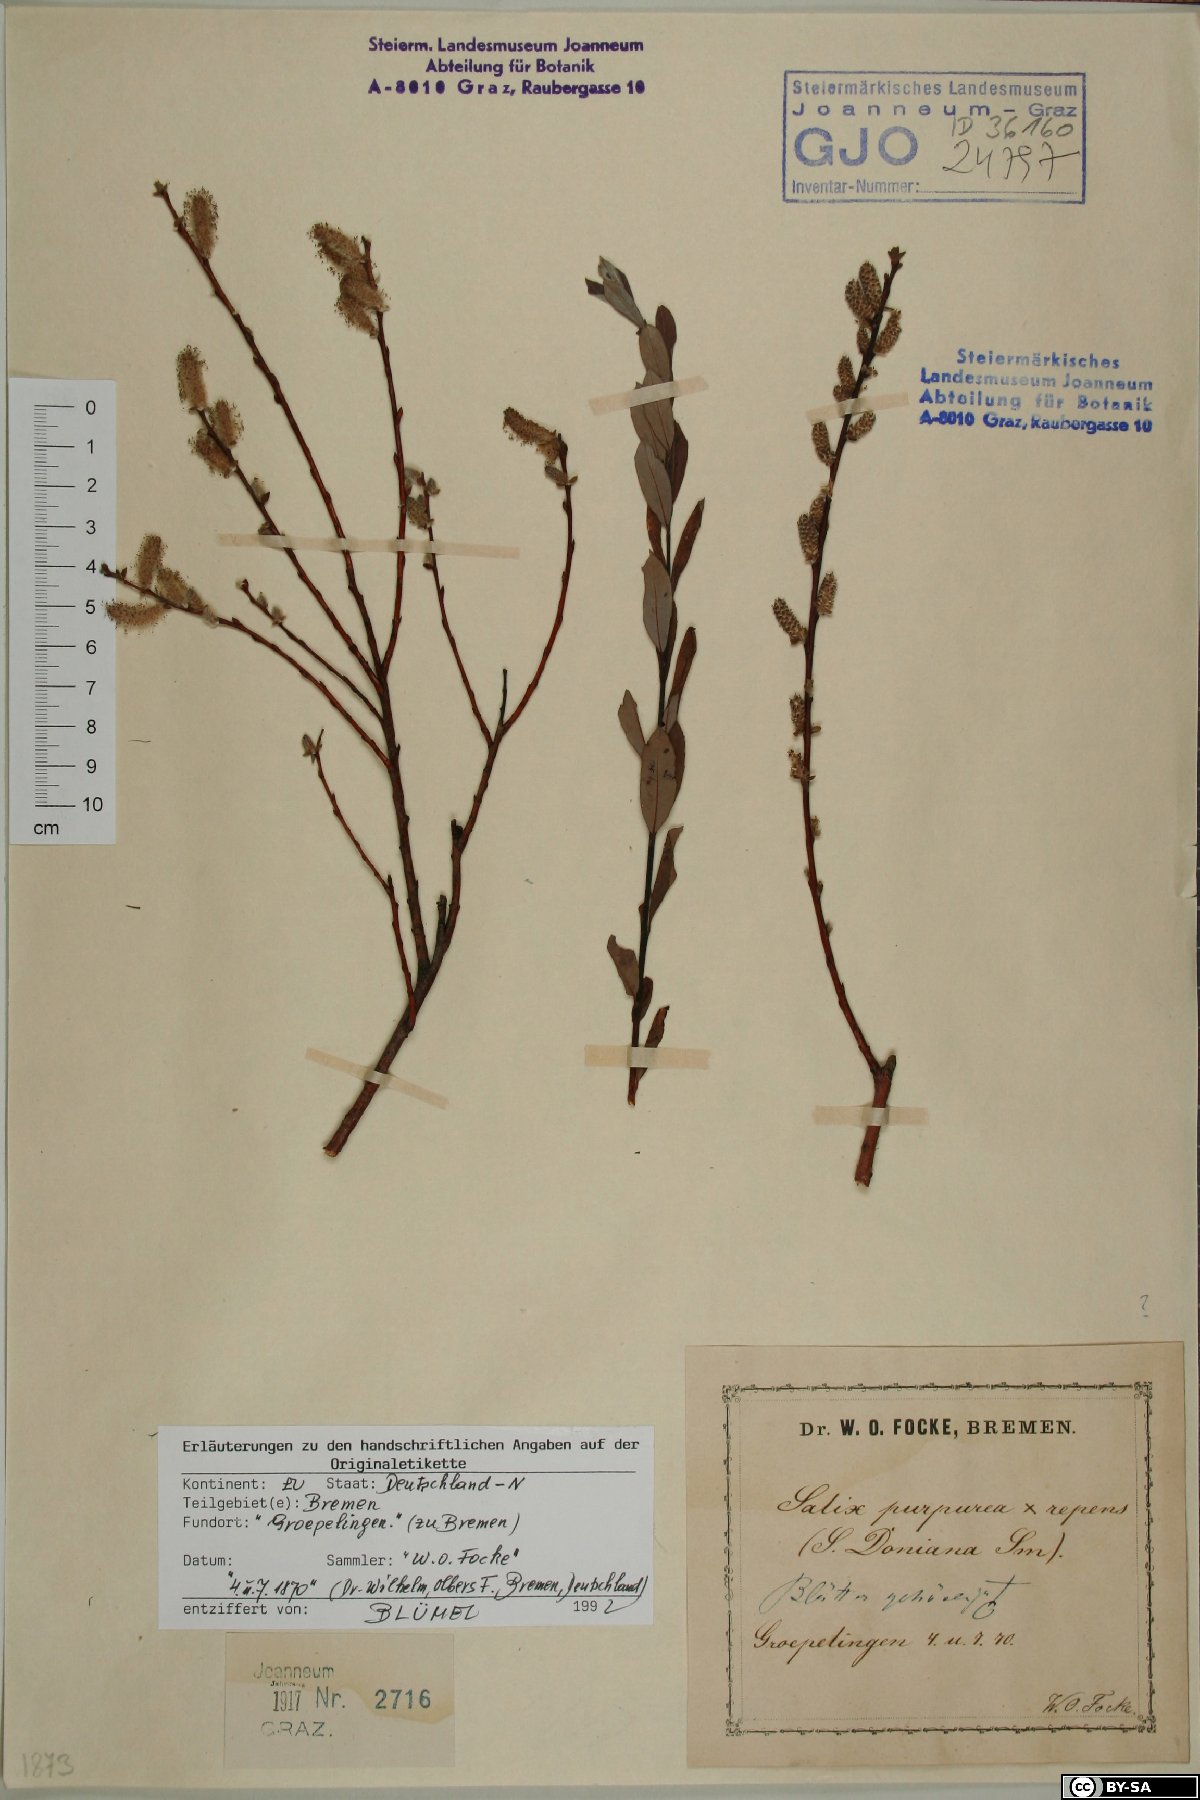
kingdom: Plantae
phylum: Tracheophyta
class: Magnoliopsida
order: Malpighiales
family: Salicaceae
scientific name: Salicaceae
